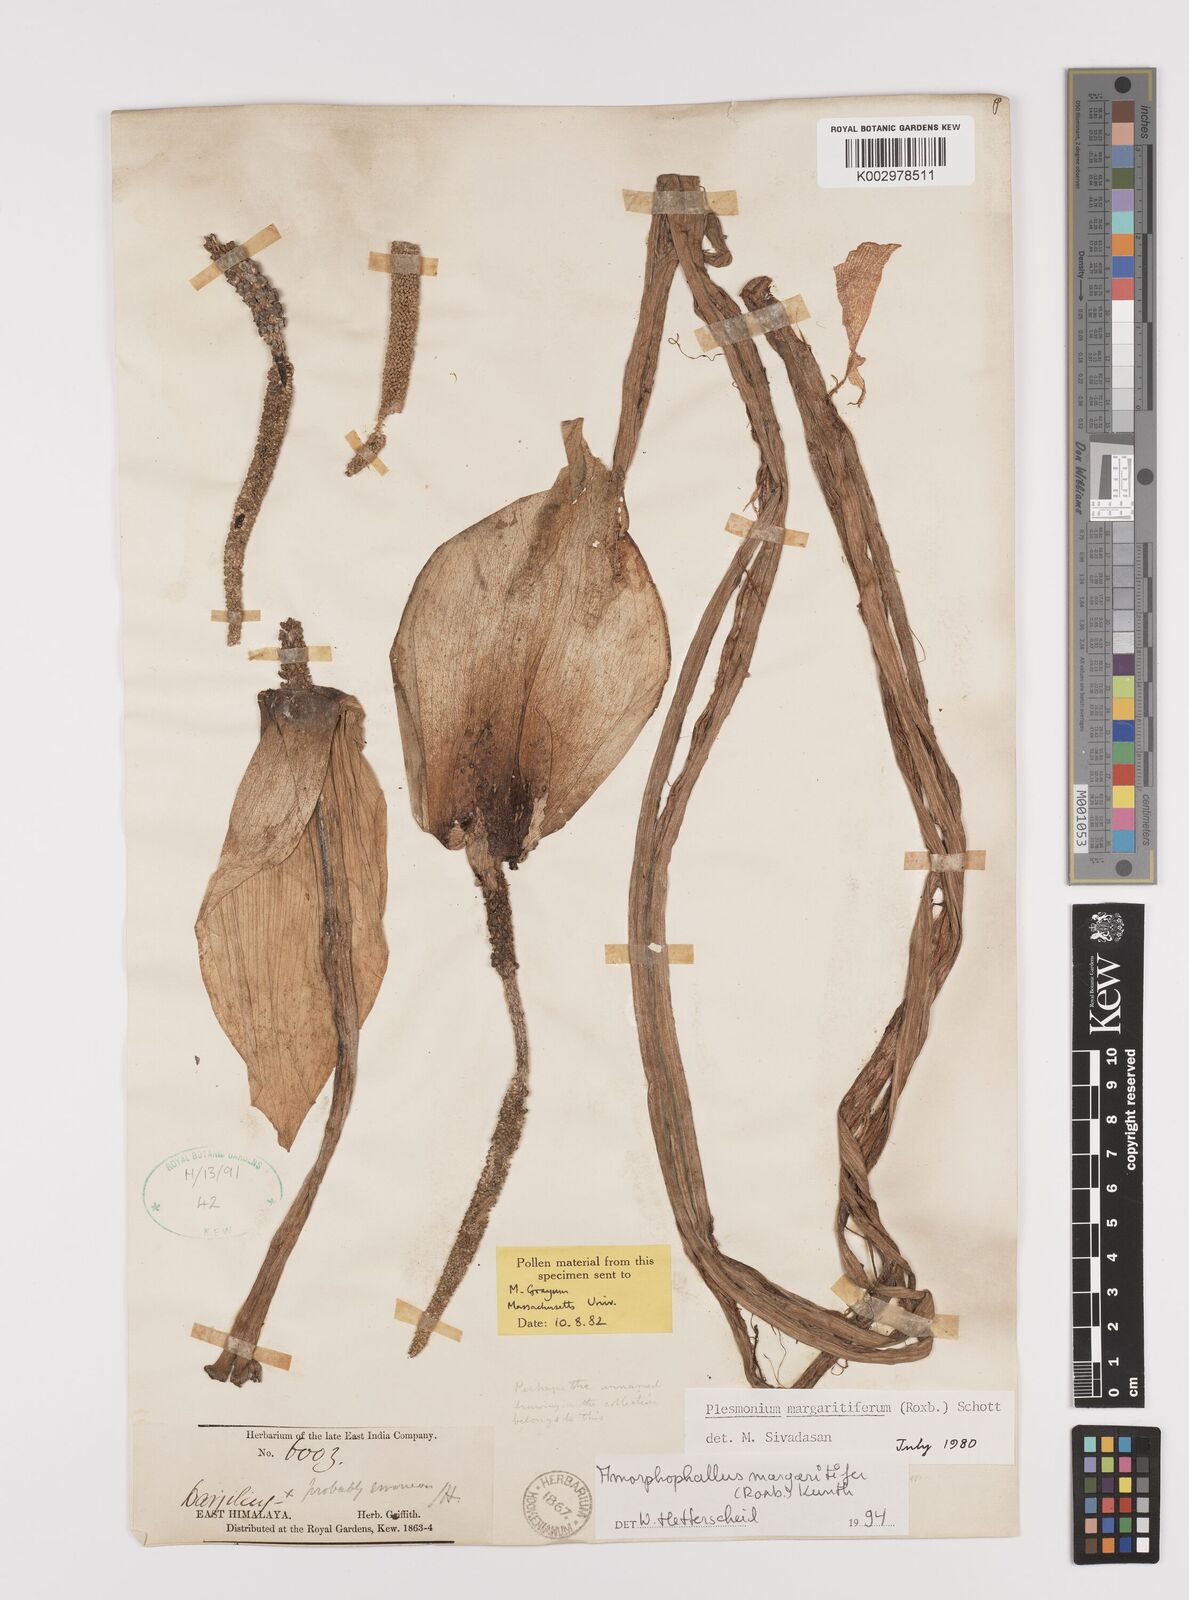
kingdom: Plantae
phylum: Tracheophyta
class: Liliopsida
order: Alismatales
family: Araceae
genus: Amorphophallus
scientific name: Amorphophallus margaritifer
